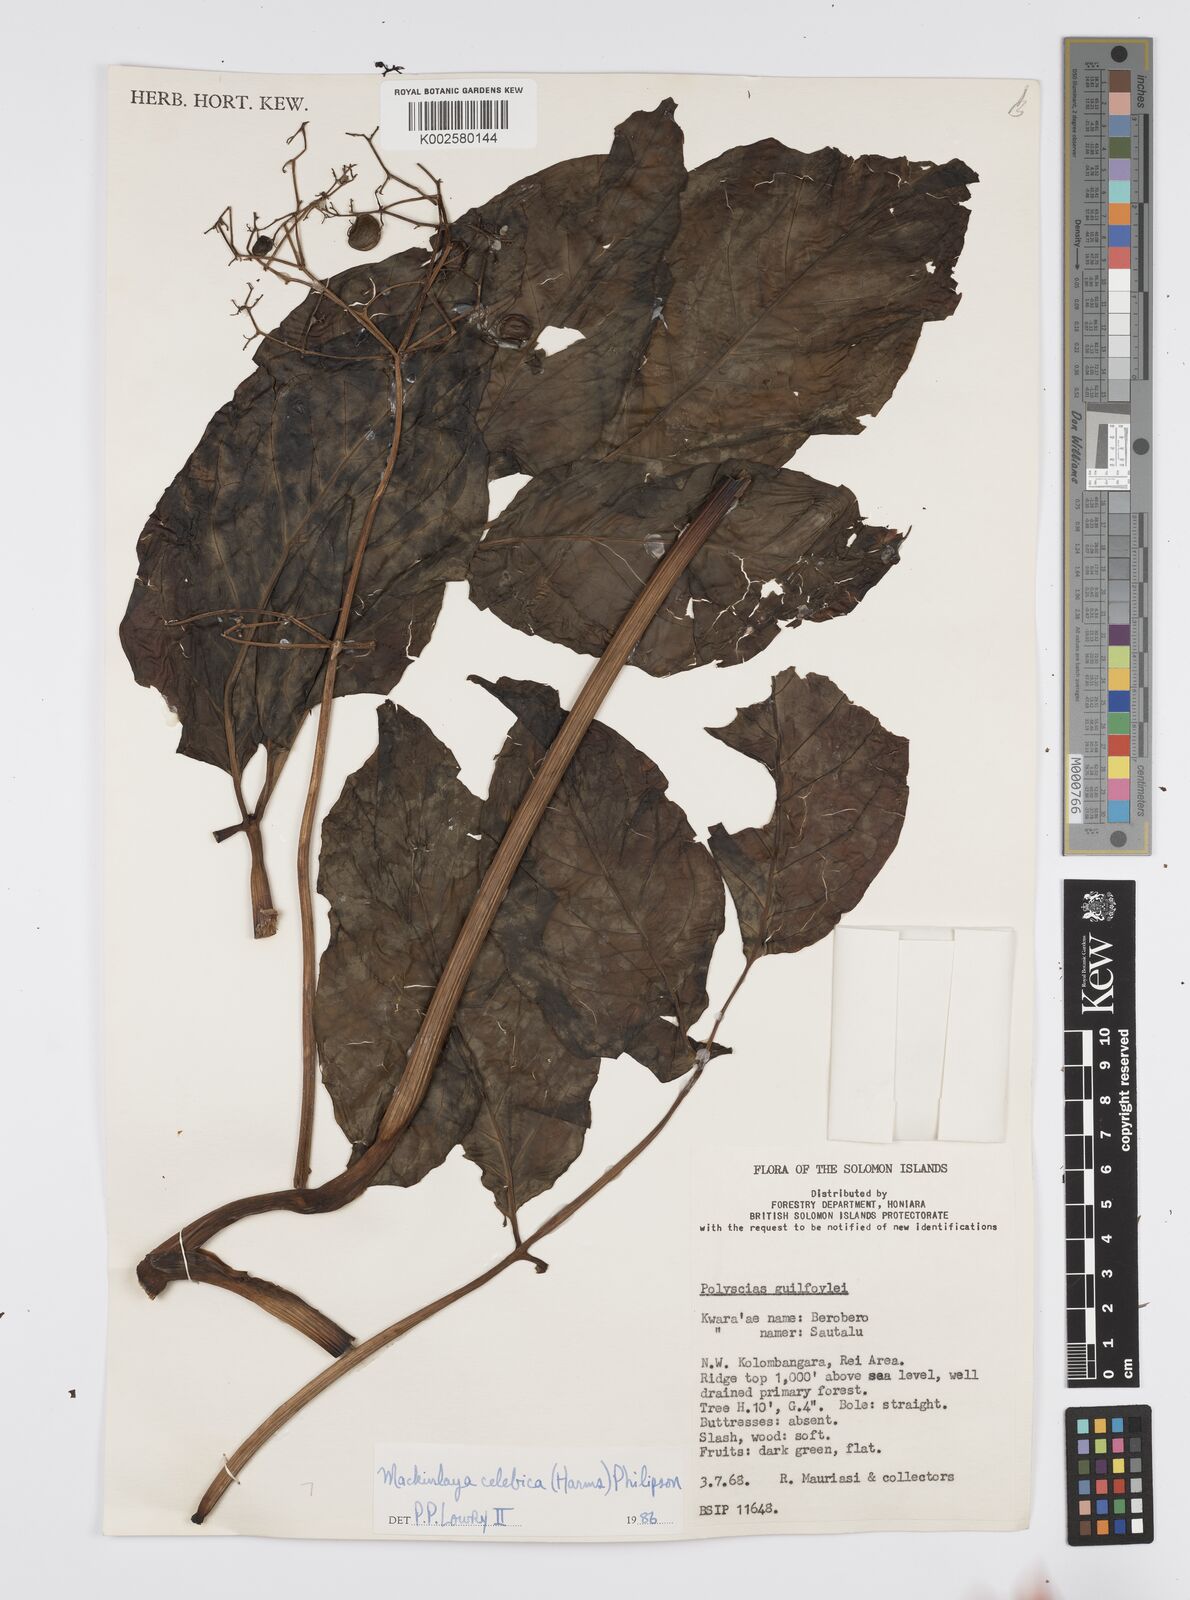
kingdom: Plantae
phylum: Tracheophyta
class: Magnoliopsida
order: Apiales
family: Apiaceae
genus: Mackinlaya
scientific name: Mackinlaya celebica
